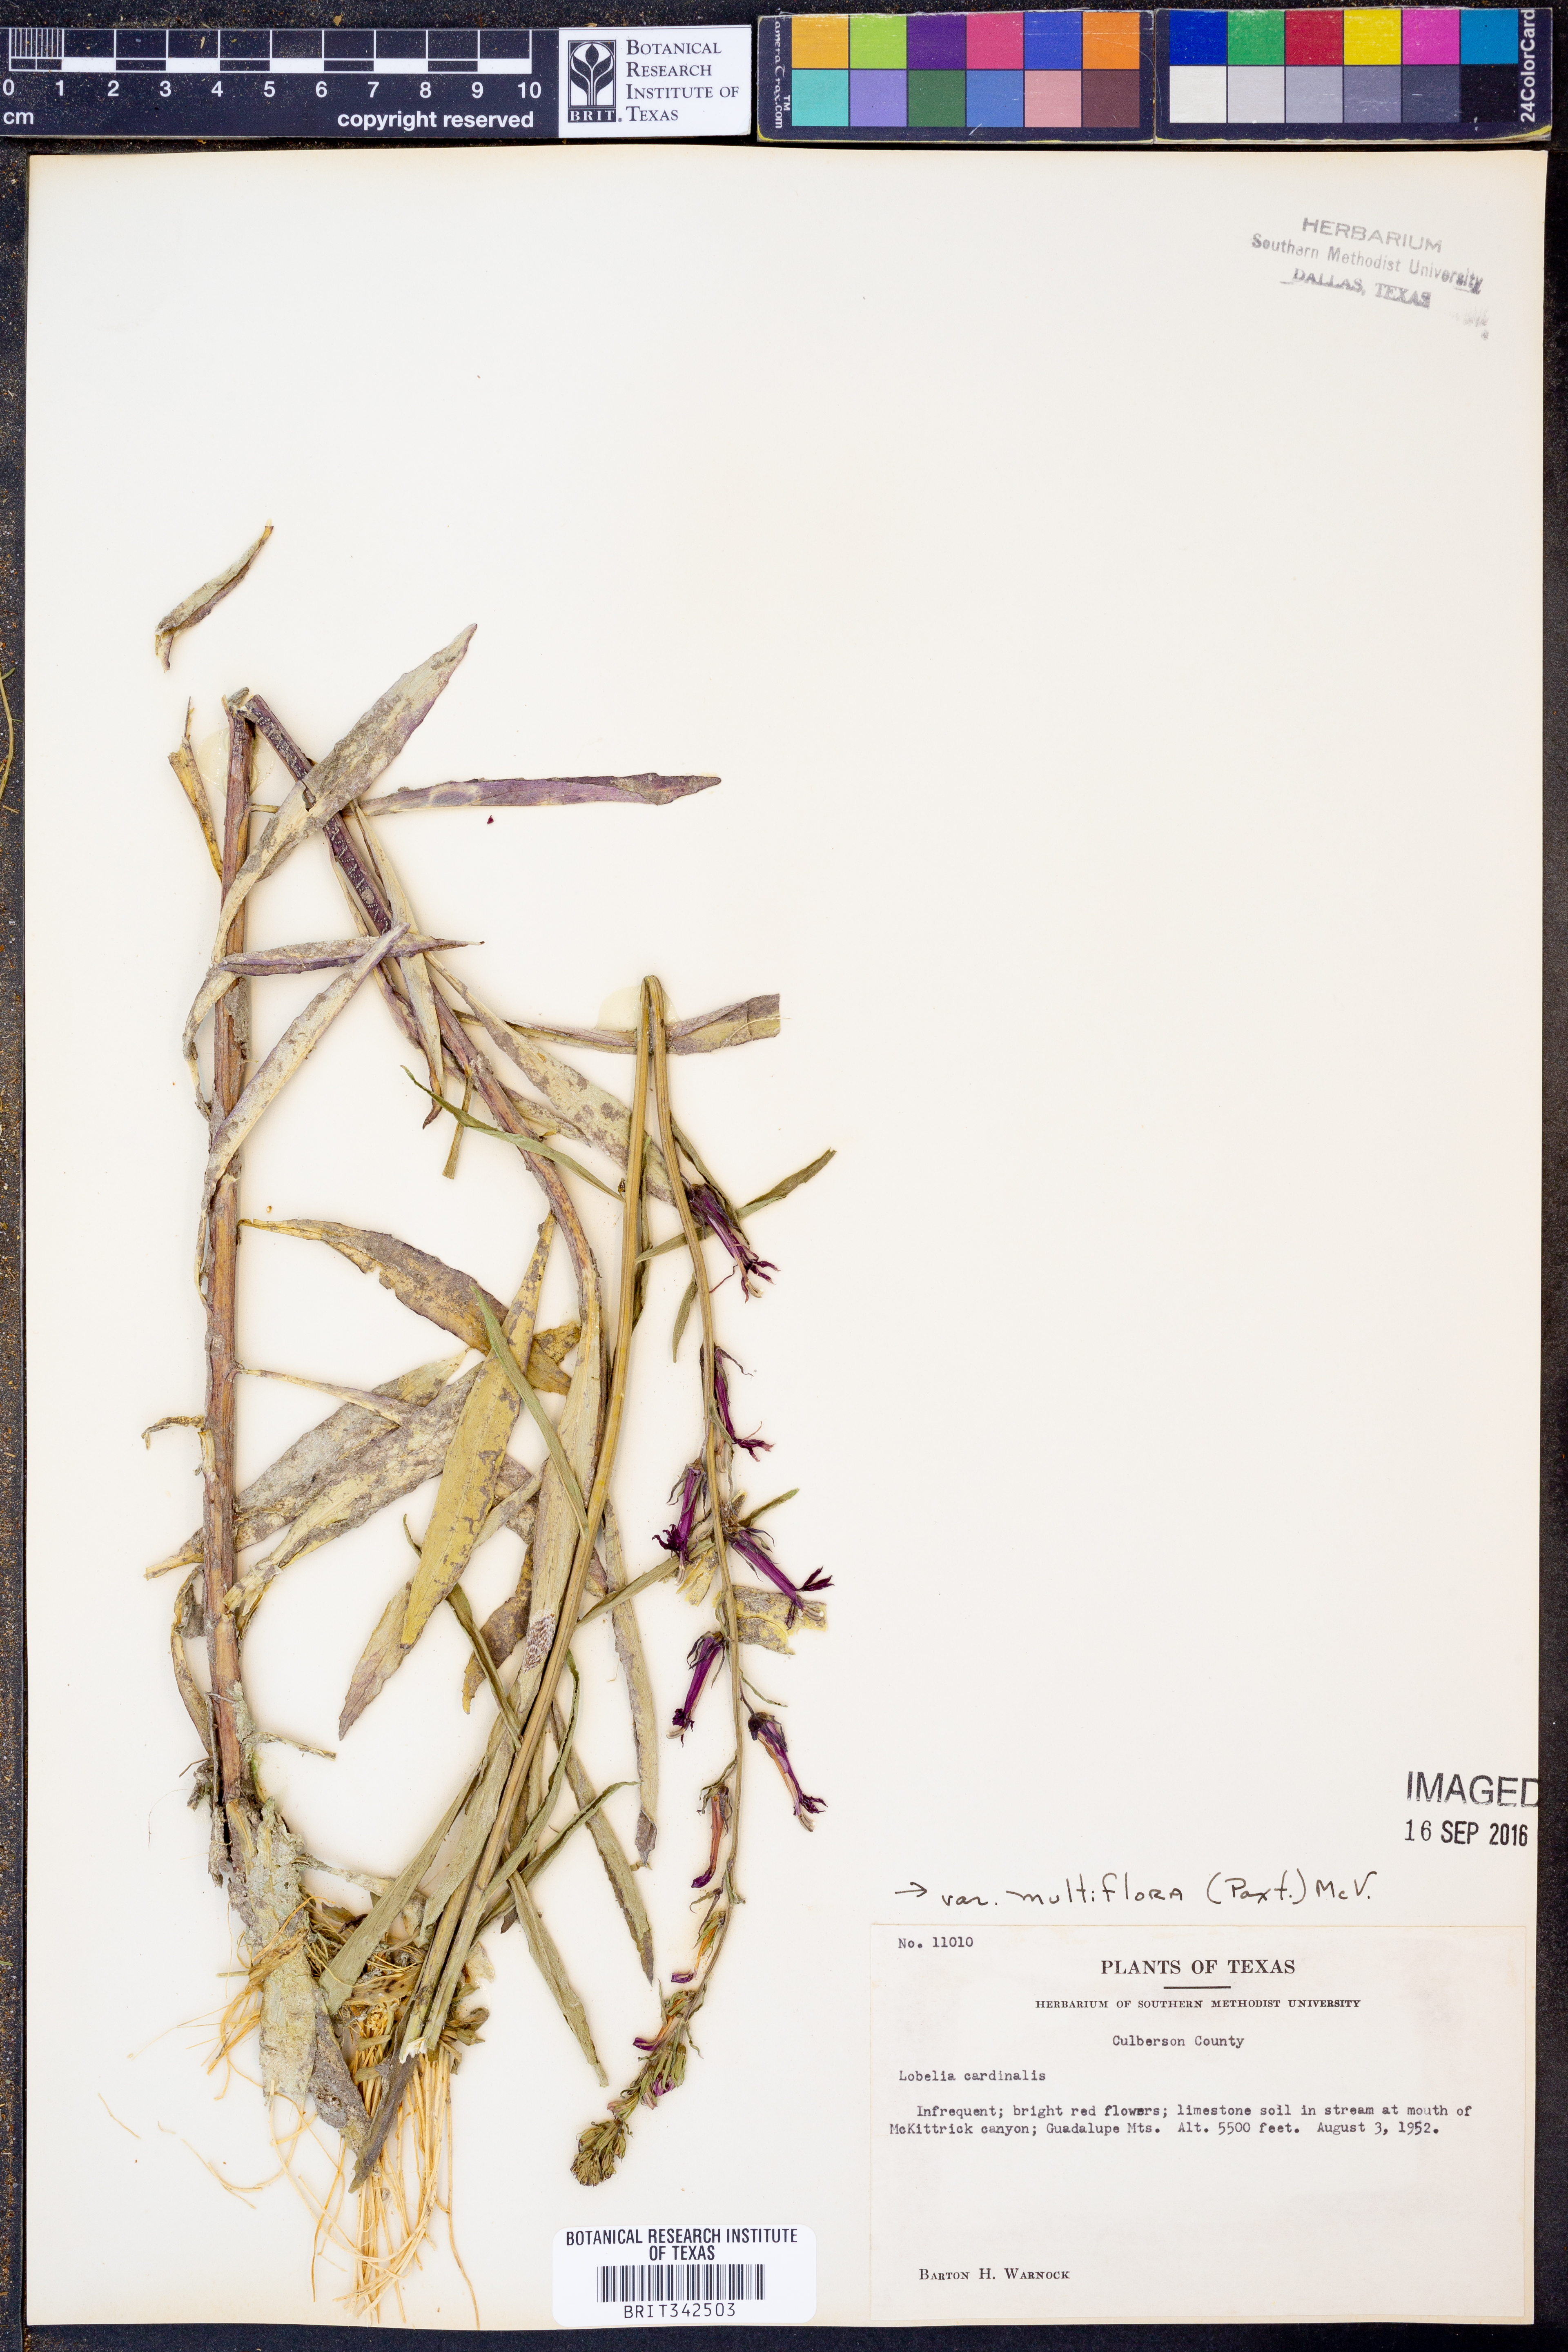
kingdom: Plantae
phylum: Tracheophyta
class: Magnoliopsida
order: Asterales
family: Campanulaceae
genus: Lobelia
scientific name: Lobelia cardinalis
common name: Cardinal flower
